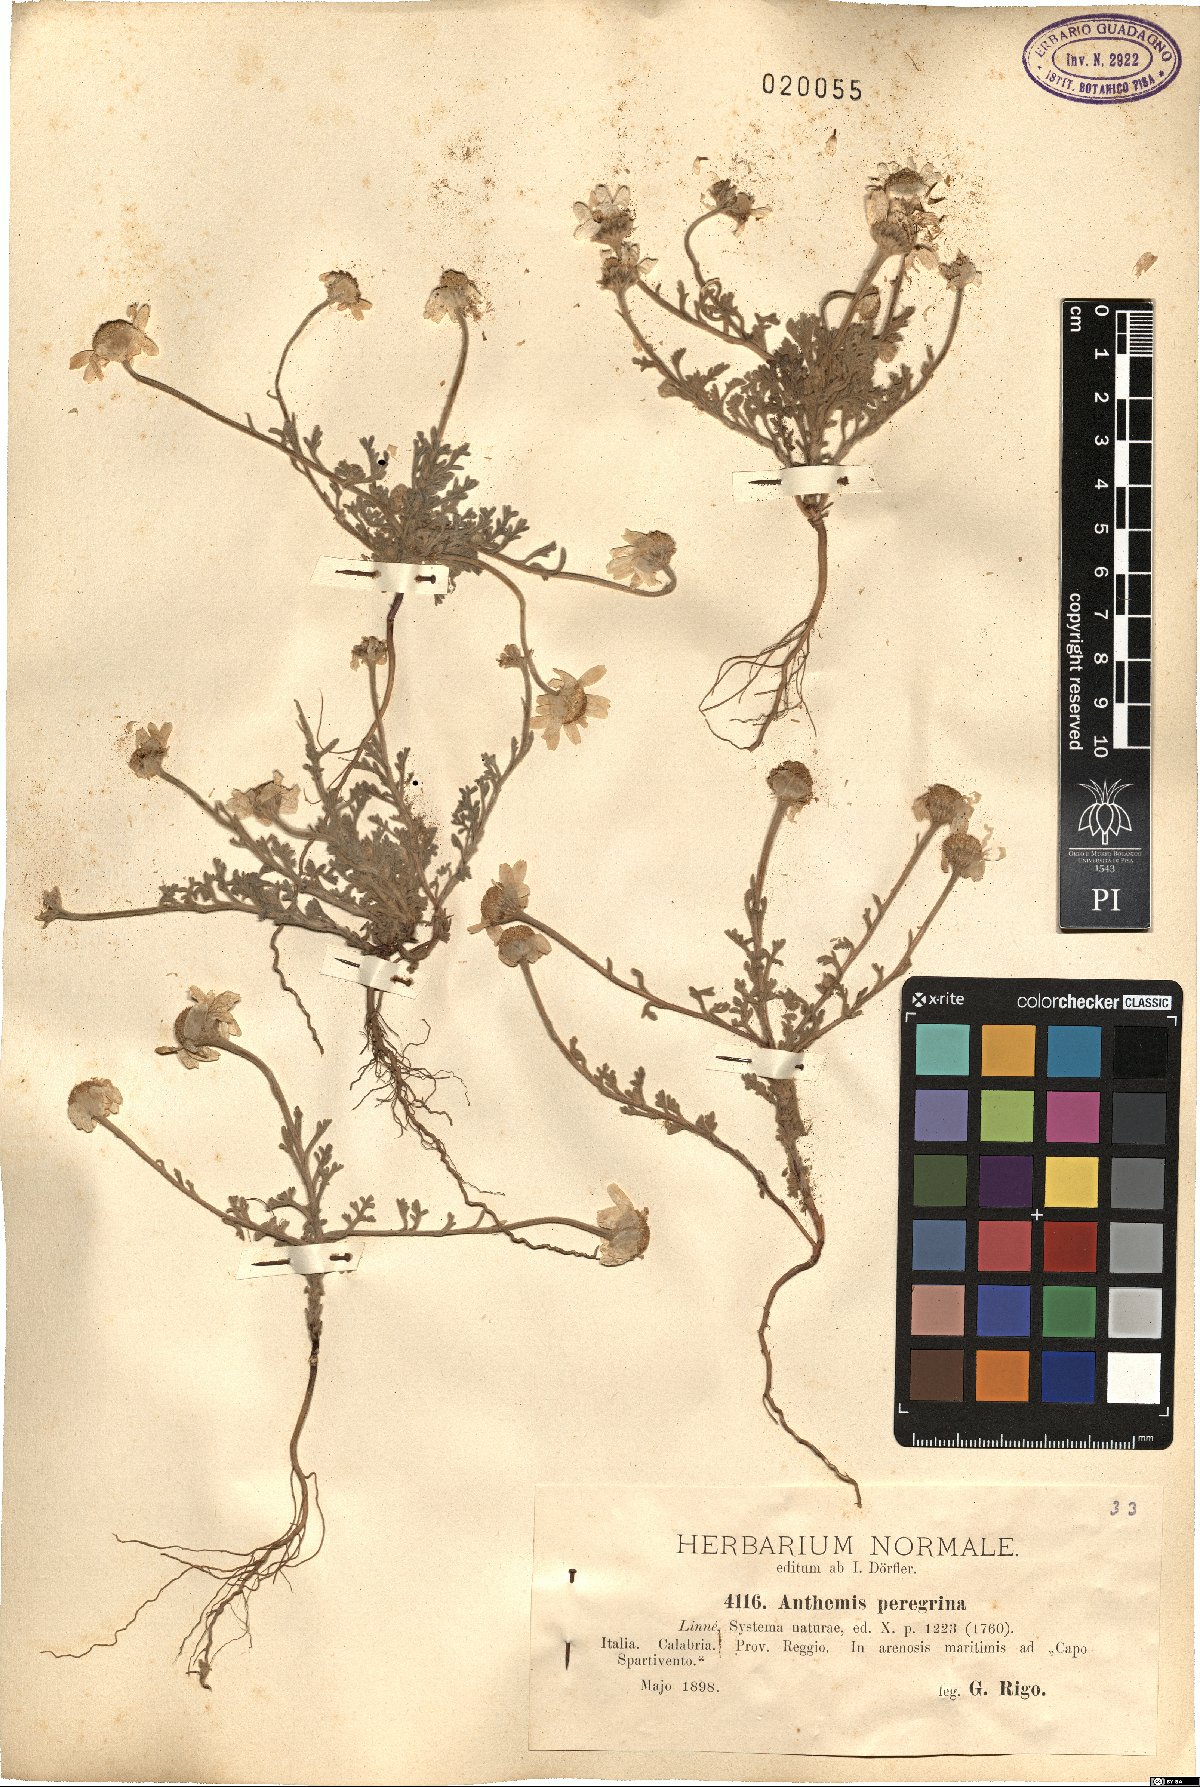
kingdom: Plantae
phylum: Tracheophyta
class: Magnoliopsida
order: Asterales
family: Asteraceae
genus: Anthemis
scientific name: Anthemis tomentosa
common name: Woolly chamomile
